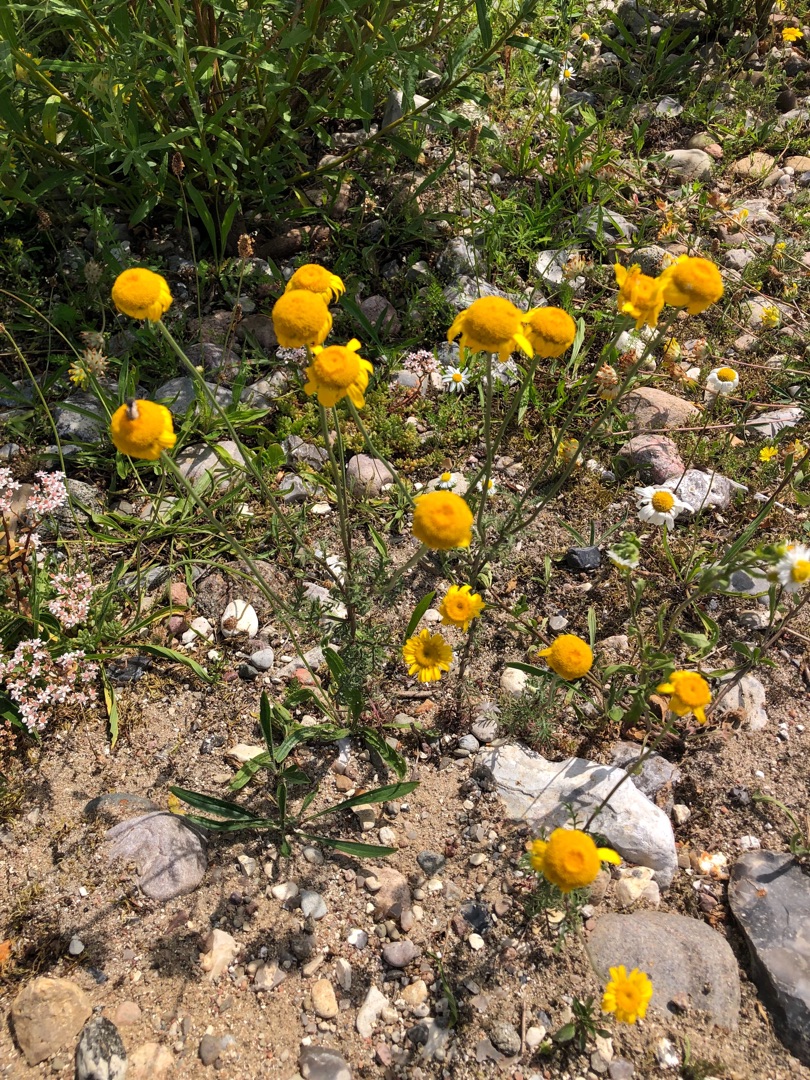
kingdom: Plantae
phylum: Tracheophyta
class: Magnoliopsida
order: Asterales
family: Asteraceae
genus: Cota
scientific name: Cota tinctoria
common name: Farve-gåseurt
